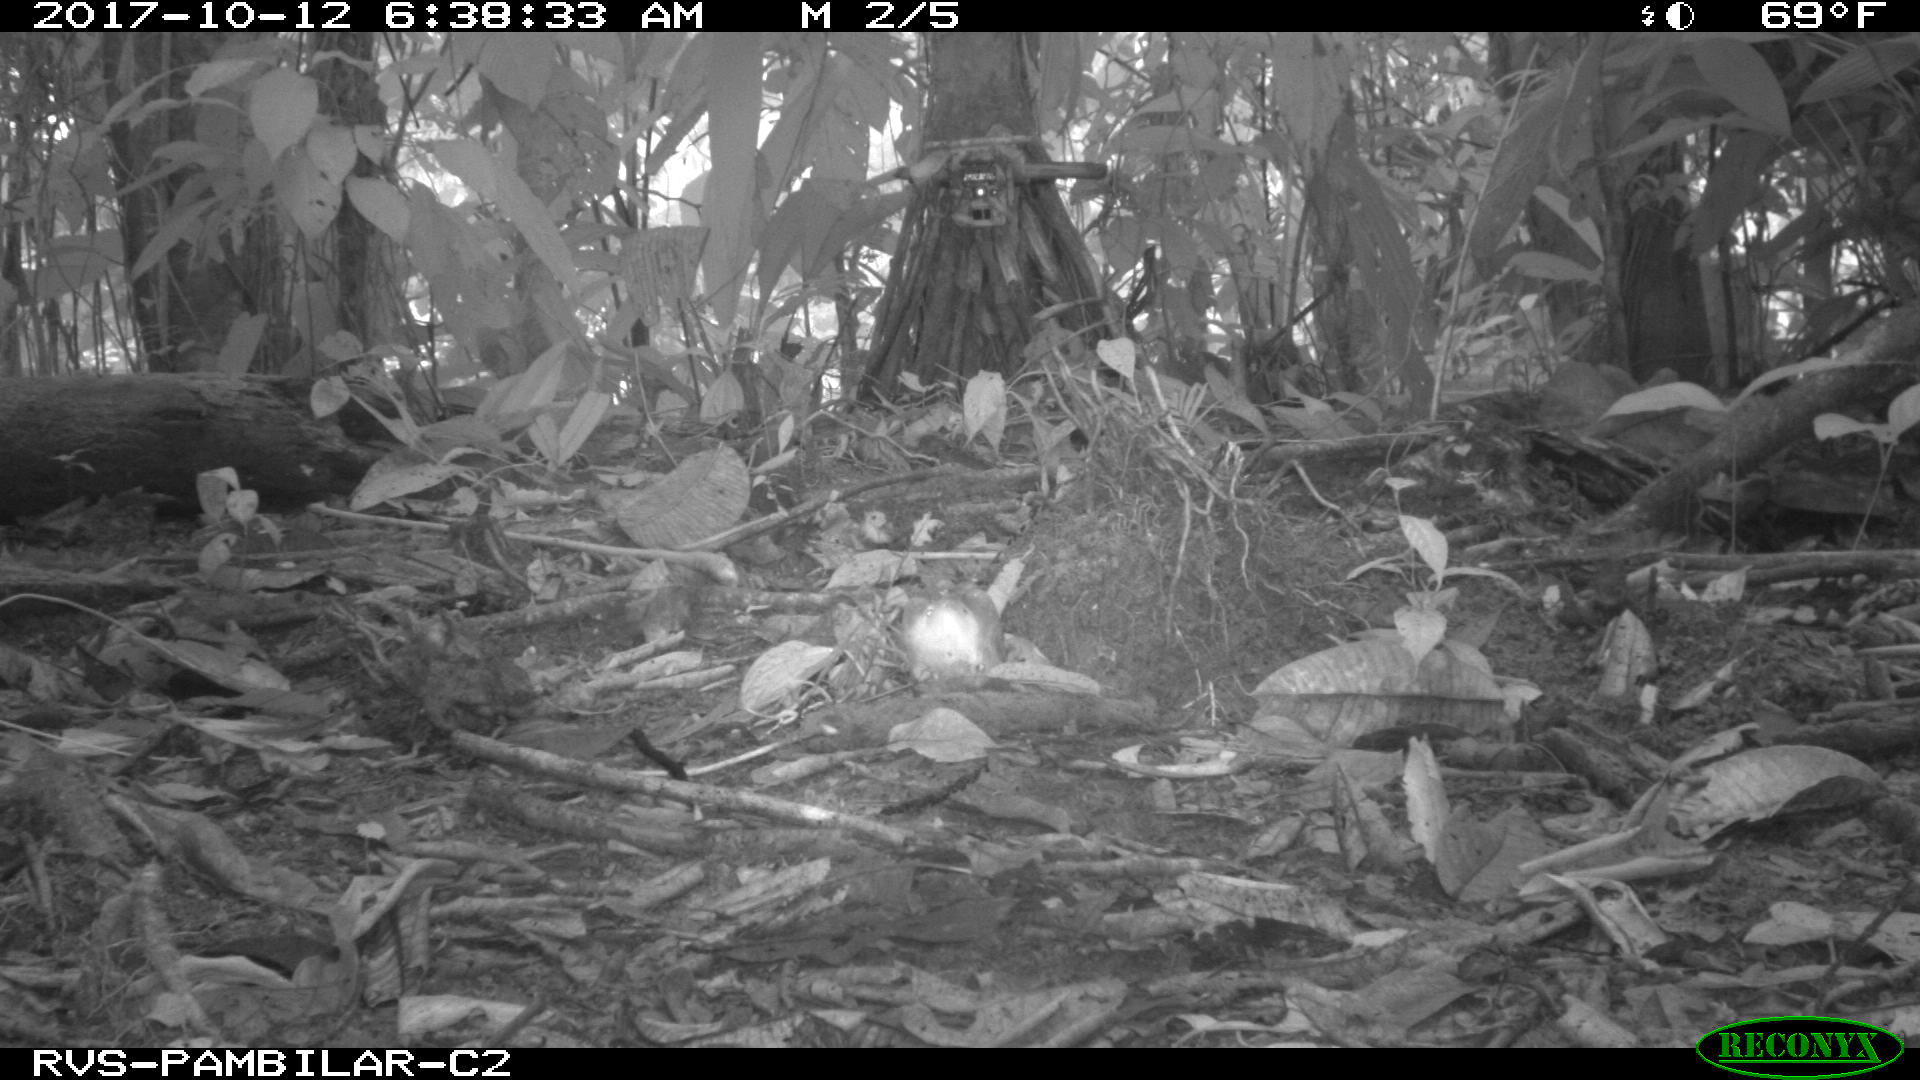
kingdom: Animalia
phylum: Chordata
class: Mammalia
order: Rodentia
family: Sciuridae
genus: Sciurus
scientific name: Sciurus granatensis
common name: Red-tailed squirrel
